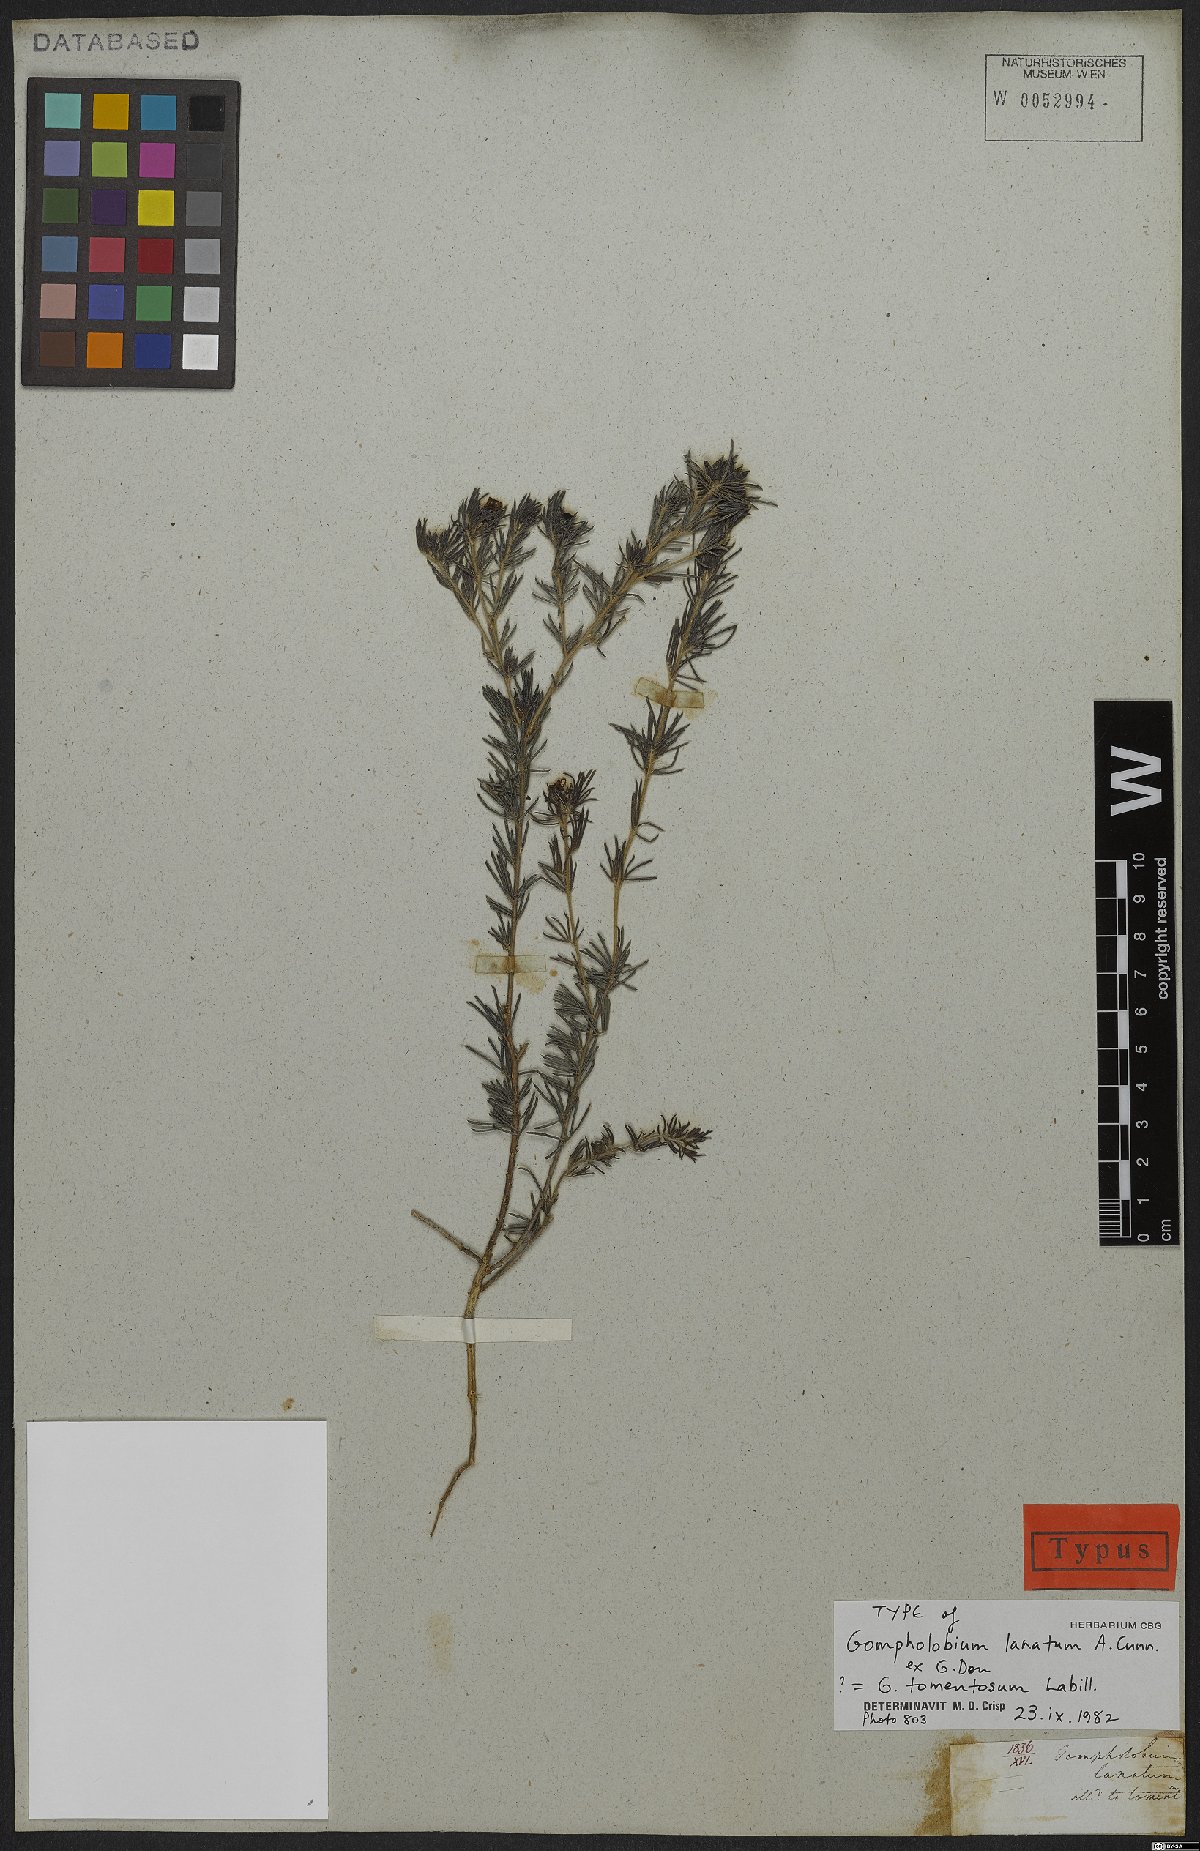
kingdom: Plantae
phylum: Tracheophyta
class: Magnoliopsida
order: Fabales
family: Fabaceae
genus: Gompholobium
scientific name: Gompholobium tomentosum
